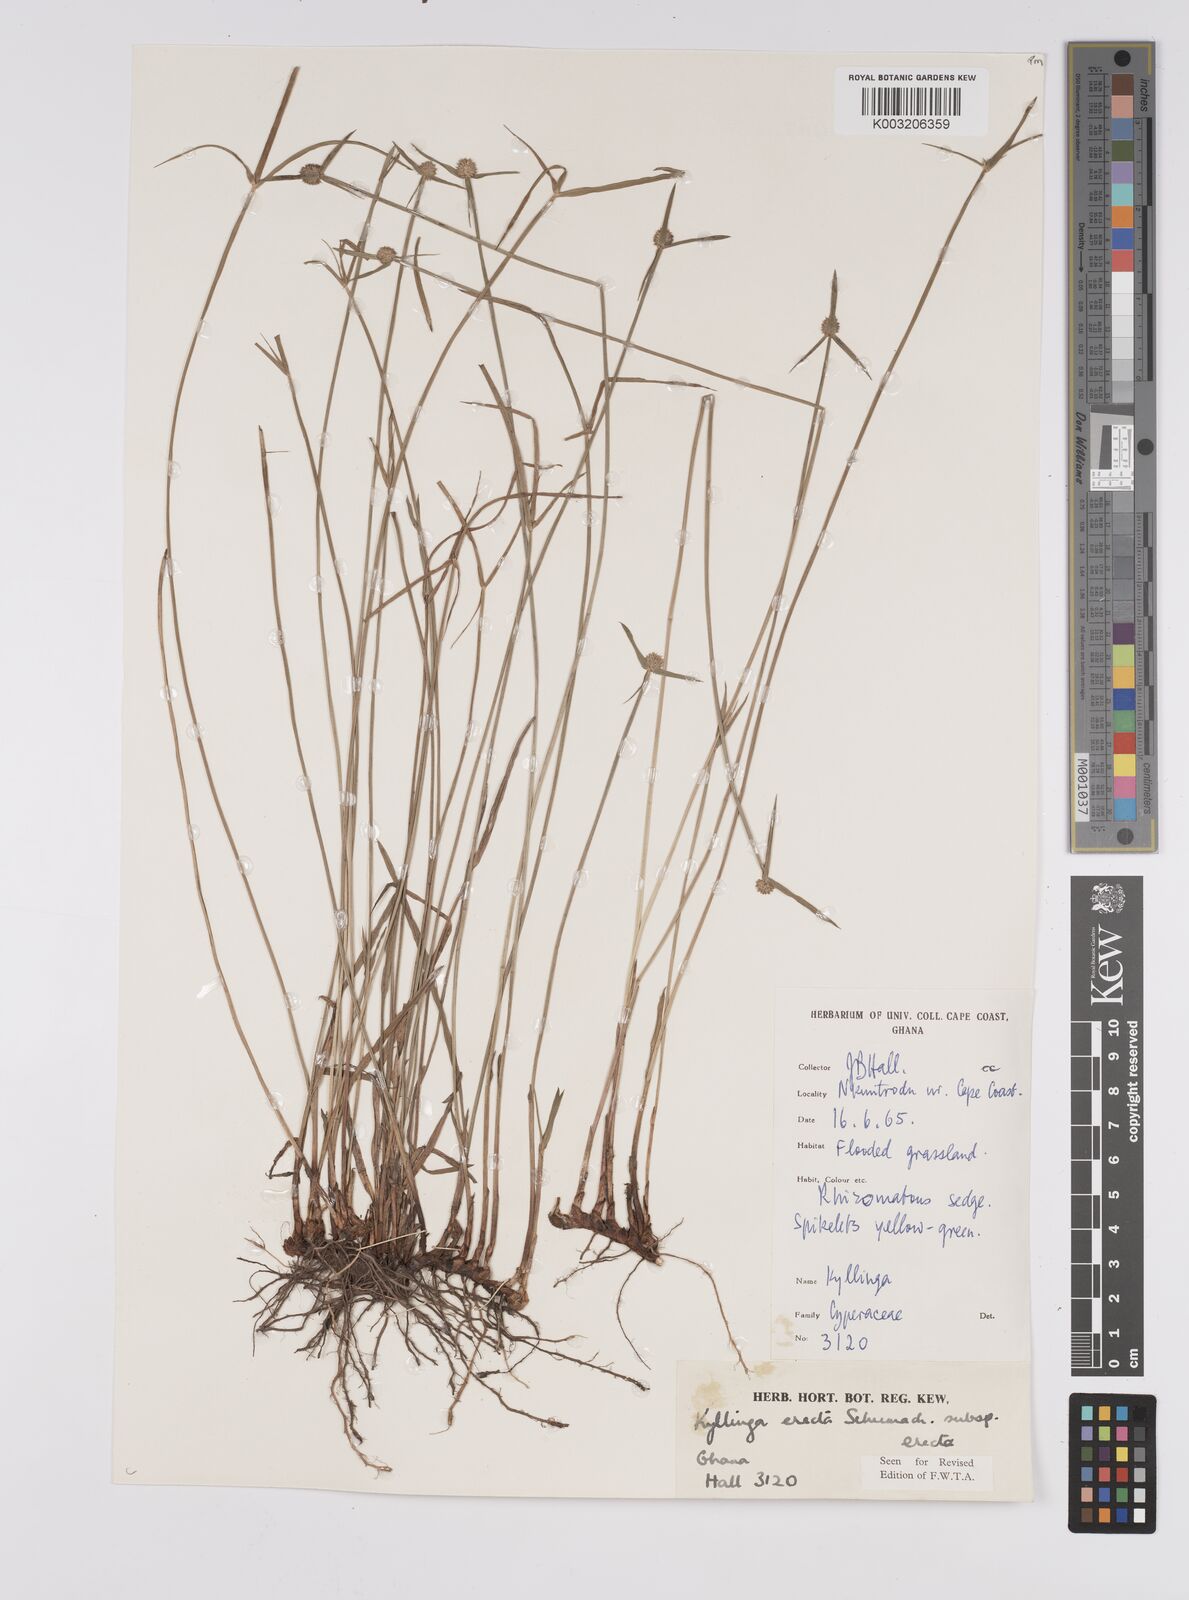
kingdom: Plantae
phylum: Tracheophyta
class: Liliopsida
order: Poales
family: Cyperaceae
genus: Cyperus
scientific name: Cyperus erectus
